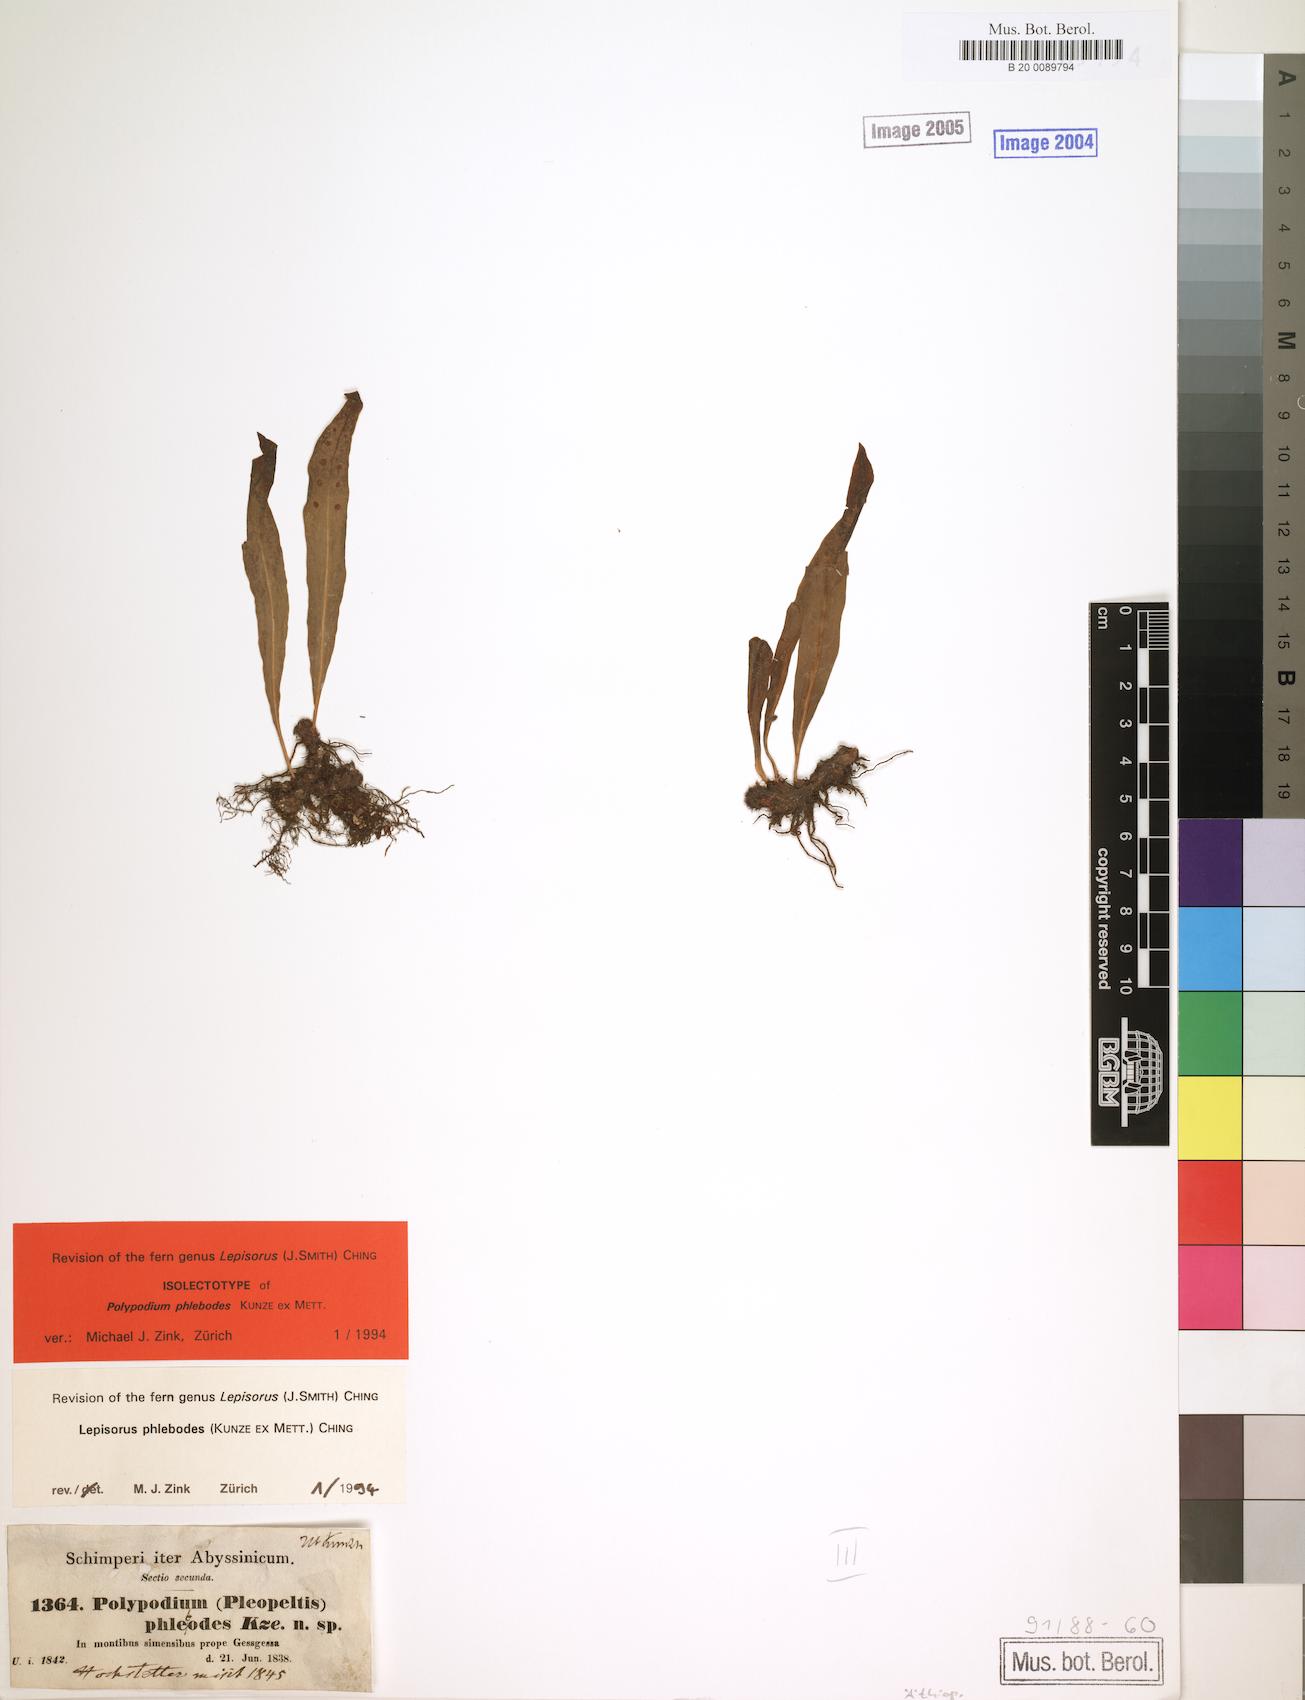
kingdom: Plantae
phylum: Tracheophyta
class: Polypodiopsida
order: Polypodiales
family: Polypodiaceae
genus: Lepisorus
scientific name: Lepisorus excavatus
